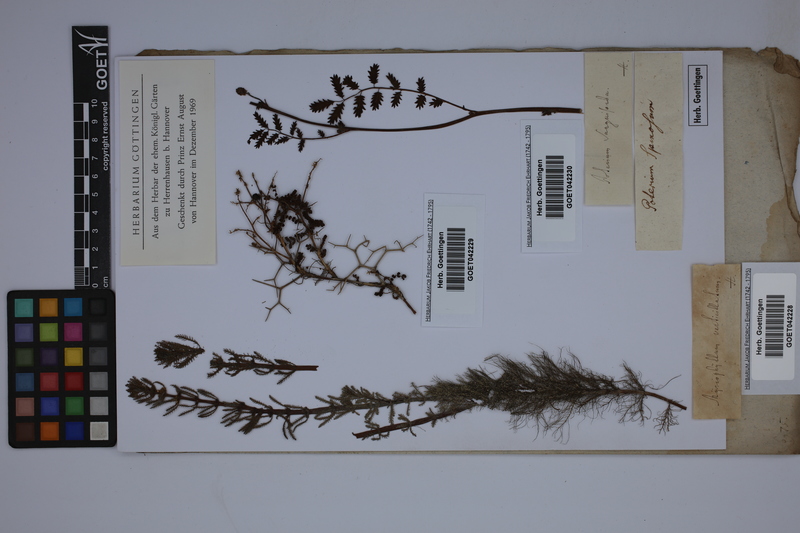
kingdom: Plantae
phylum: Tracheophyta
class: Magnoliopsida
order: Rosales
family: Rosaceae
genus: Poterium
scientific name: Poterium sanguisorba
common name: Salad burnet
